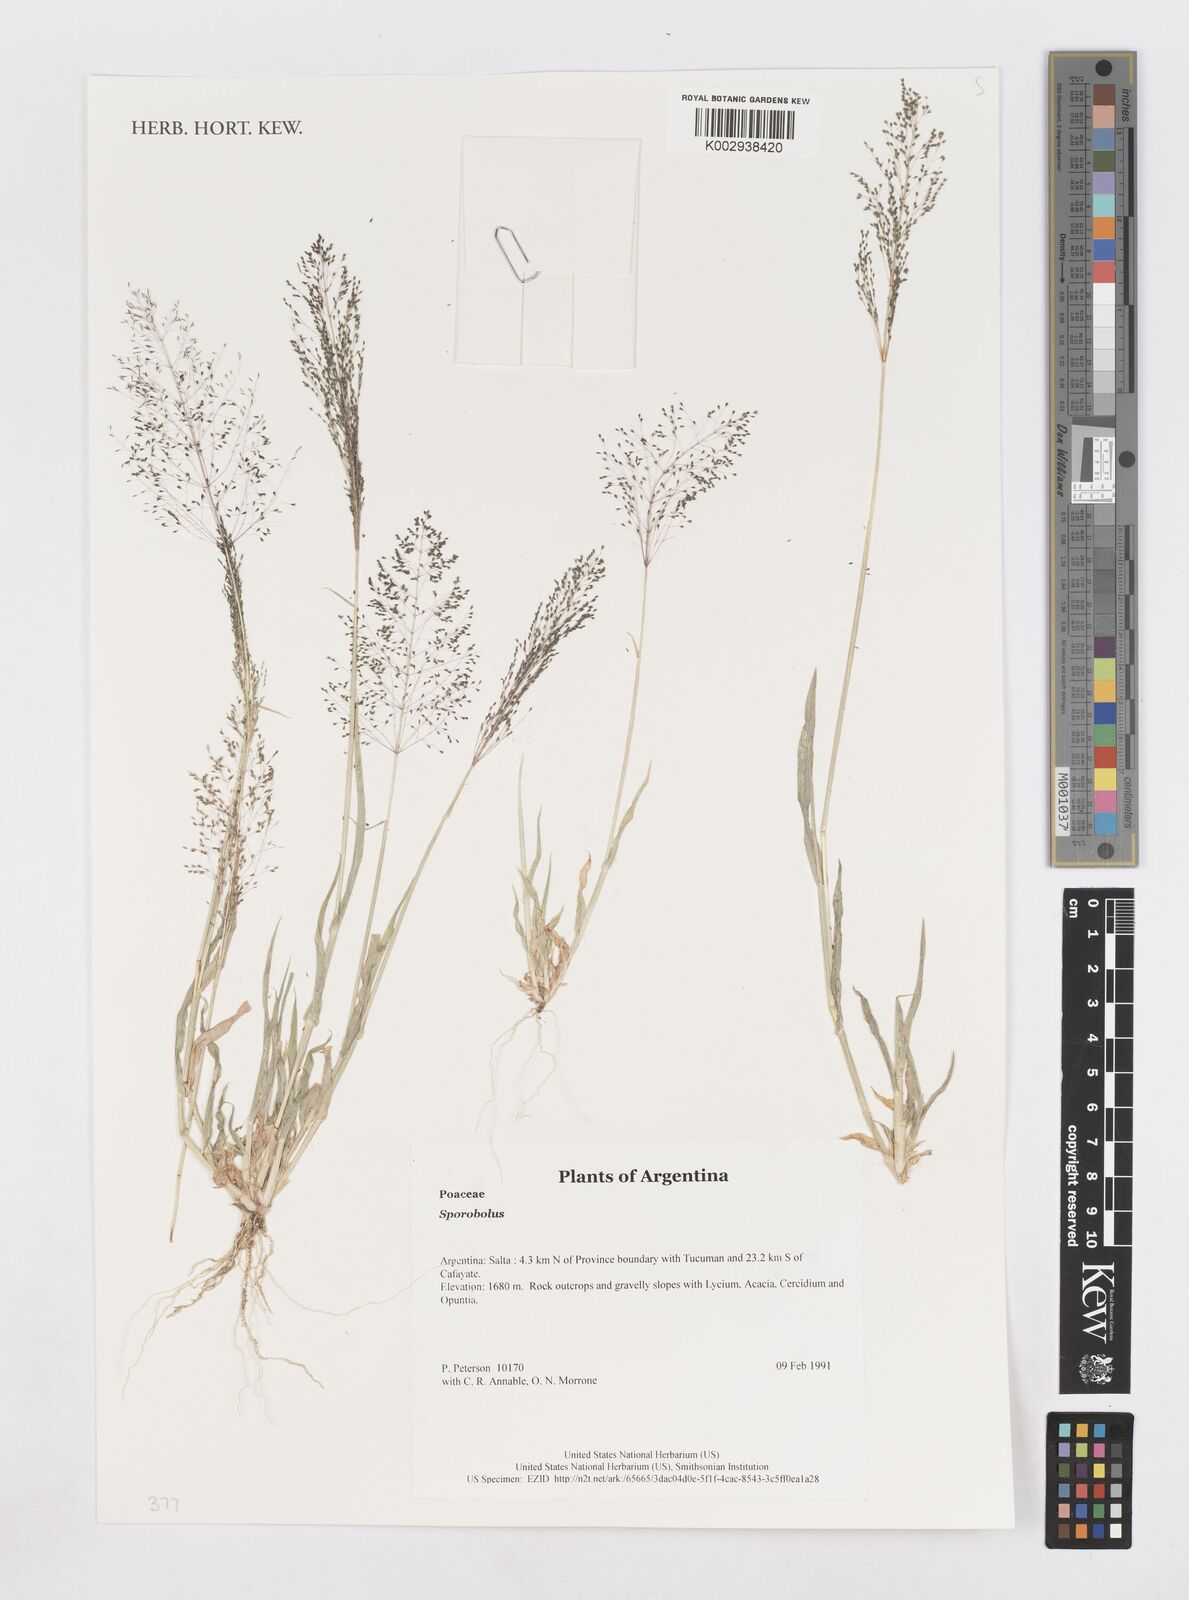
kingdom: Plantae
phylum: Tracheophyta
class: Liliopsida
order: Poales
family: Poaceae
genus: Sporobolus
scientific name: Sporobolus
